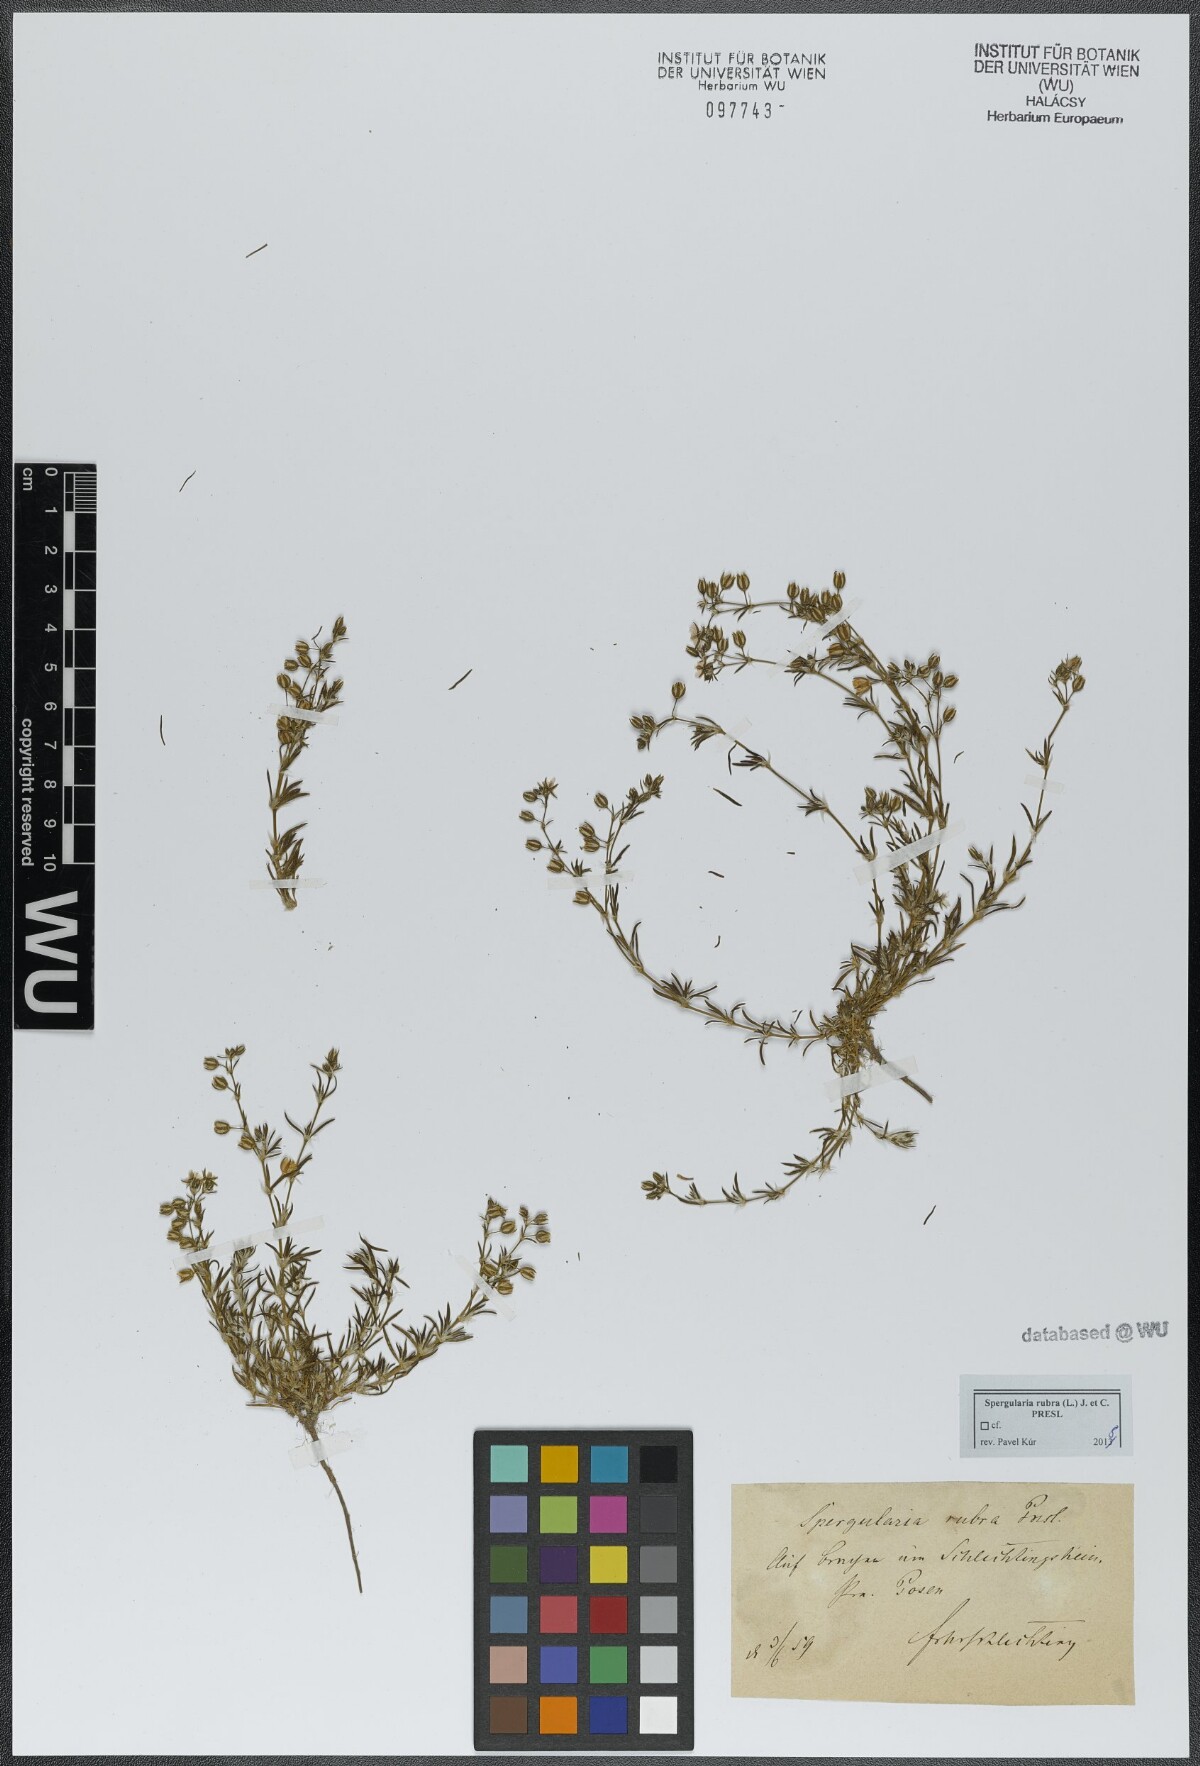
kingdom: Plantae
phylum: Tracheophyta
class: Magnoliopsida
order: Caryophyllales
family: Caryophyllaceae
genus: Spergularia
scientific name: Spergularia rubra
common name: Red sand-spurrey
